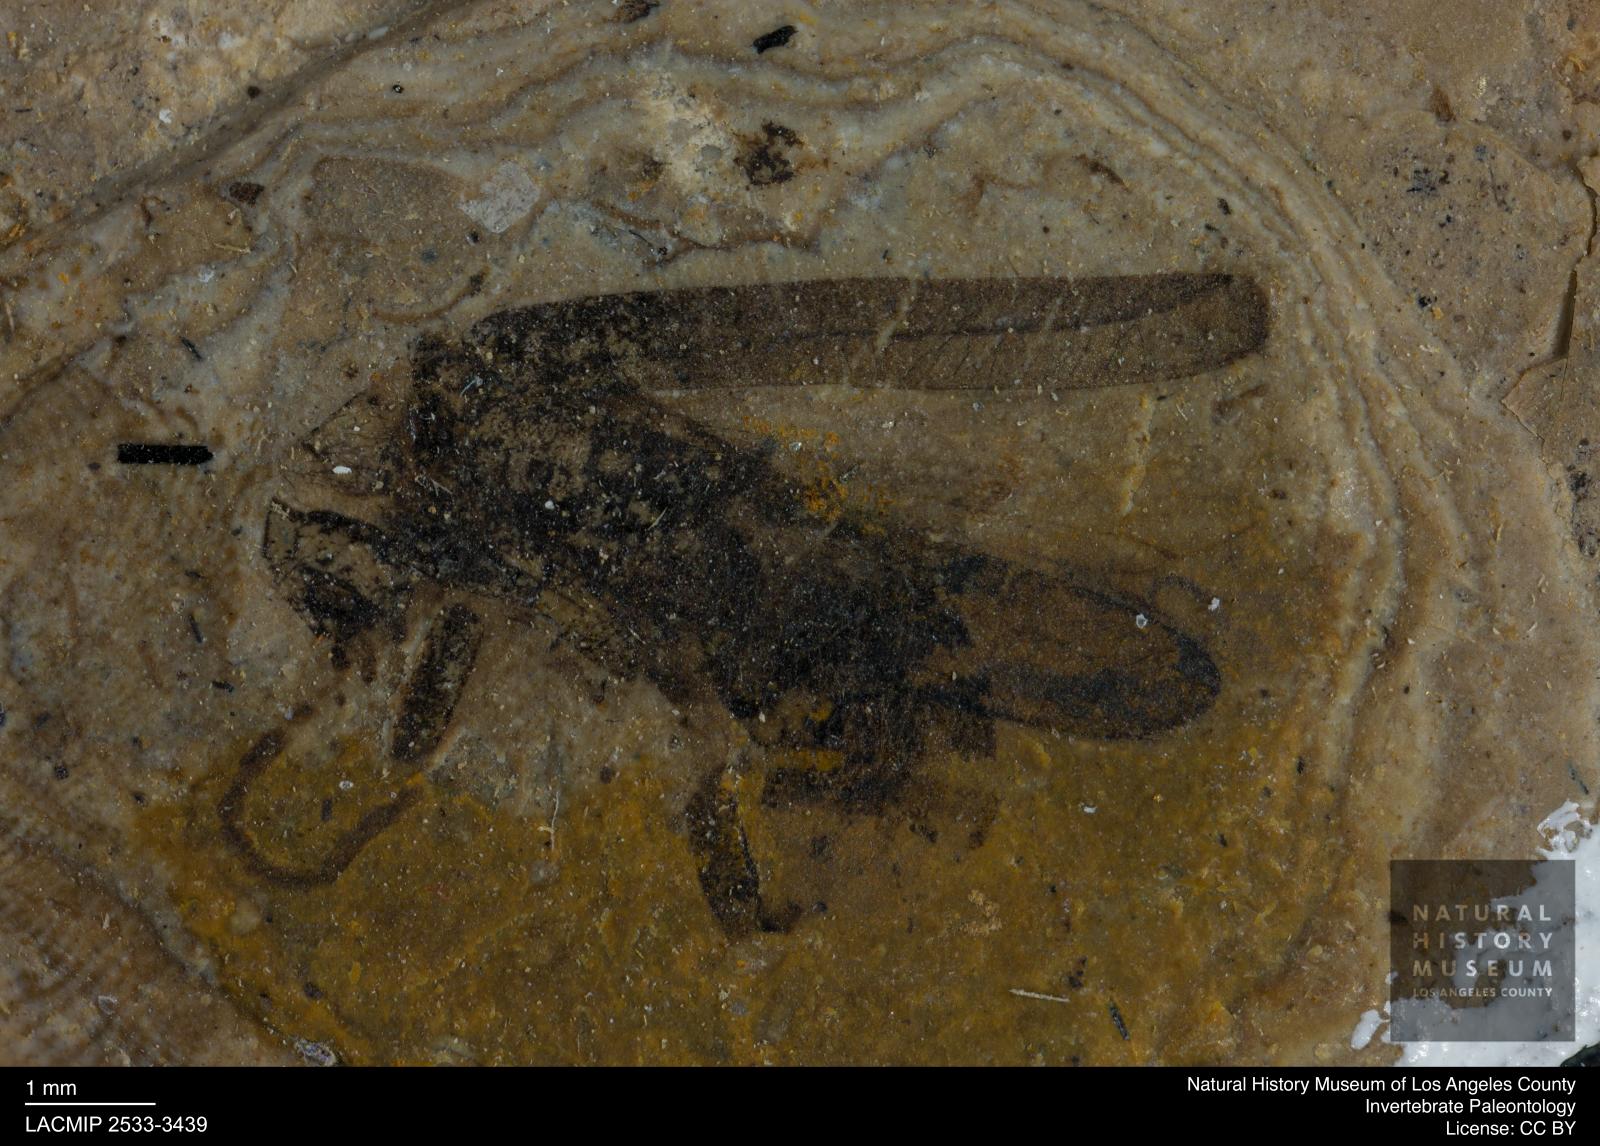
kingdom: Animalia
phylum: Arthropoda
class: Insecta
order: Coleoptera
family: Cantharidae
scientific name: Cantharidae
